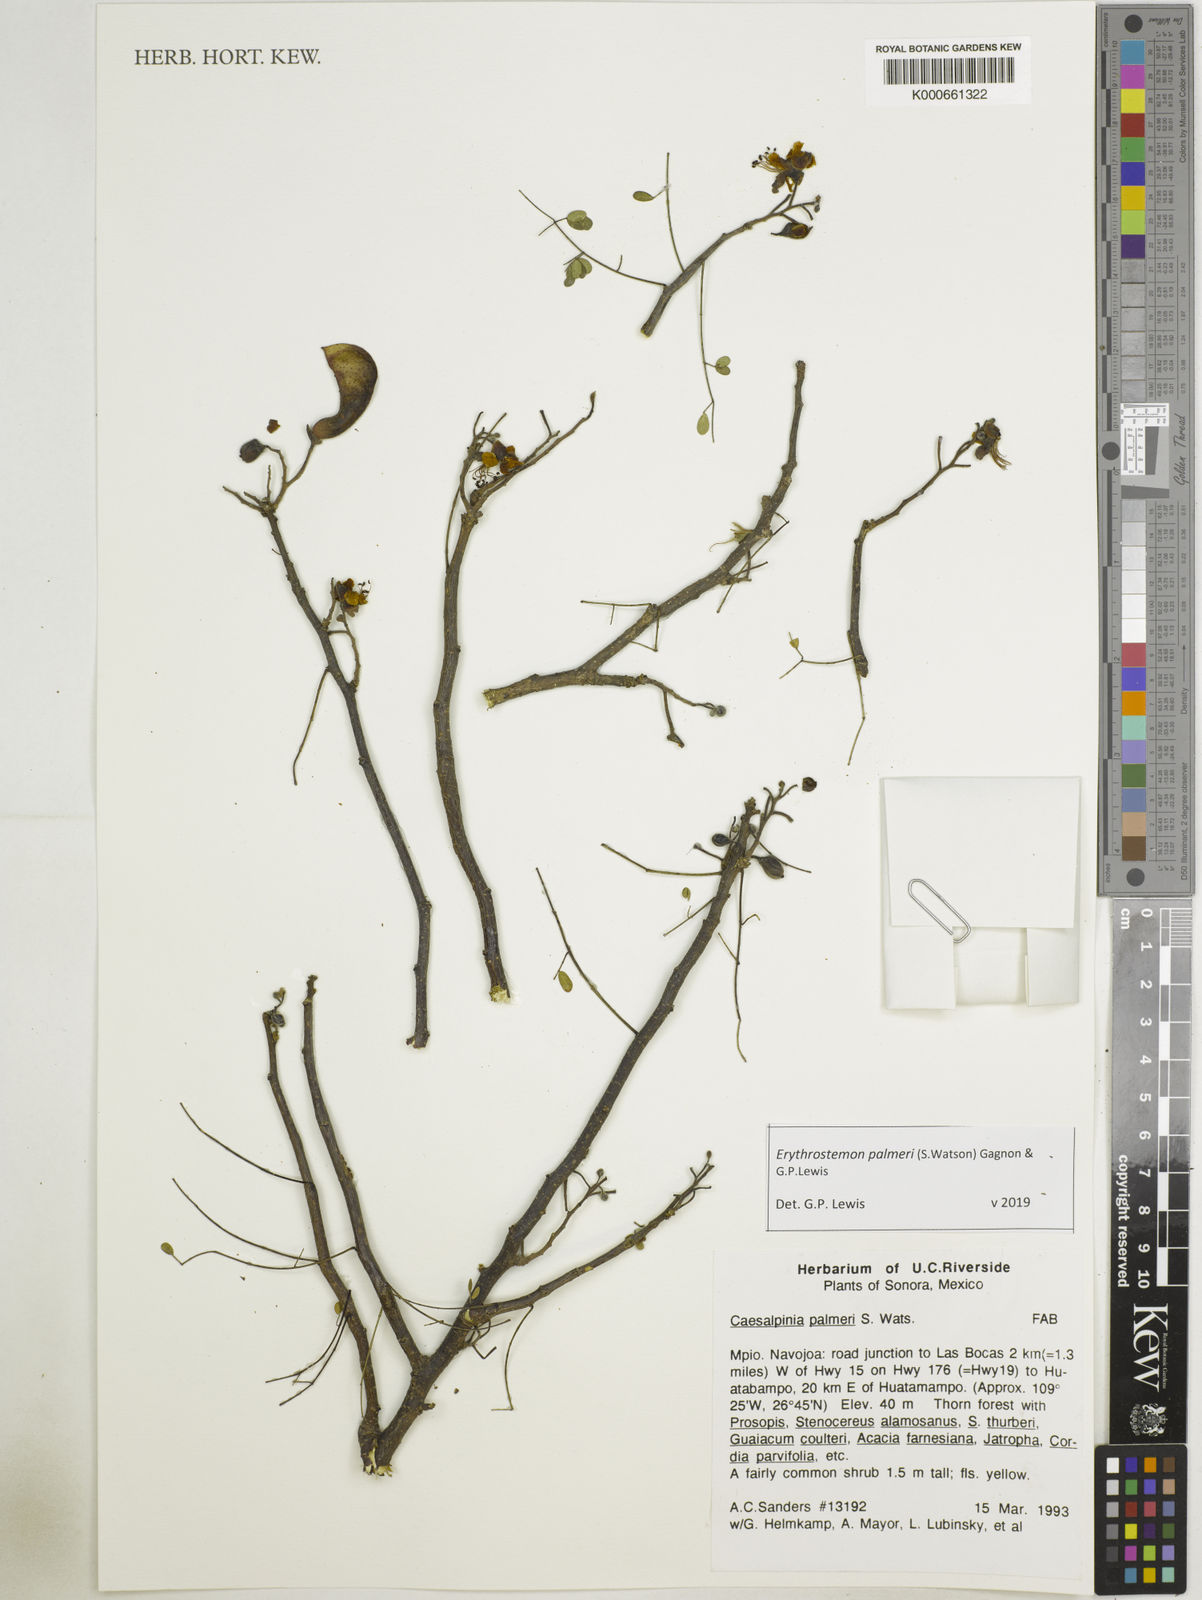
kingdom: Plantae
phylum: Tracheophyta
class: Magnoliopsida
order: Fabales
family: Fabaceae
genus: Erythrostemon
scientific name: Erythrostemon palmeri
